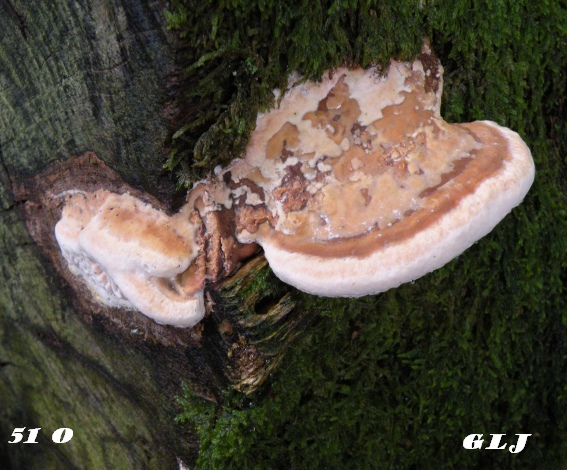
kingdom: Fungi
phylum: Basidiomycota
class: Agaricomycetes
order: Polyporales
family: Fomitopsidaceae
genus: Daedalea
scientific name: Daedalea quercina
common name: ege-labyrintsvamp
